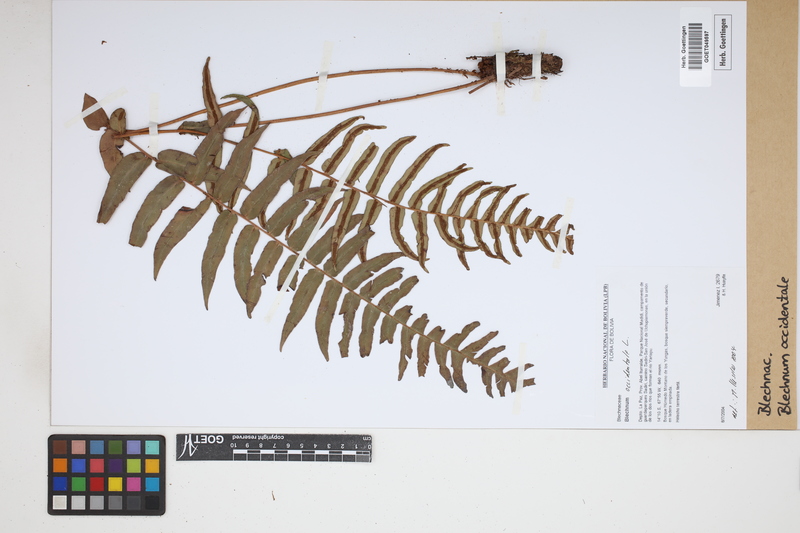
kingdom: Plantae
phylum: Tracheophyta
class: Polypodiopsida
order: Polypodiales
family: Blechnaceae
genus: Blechnum
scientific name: Blechnum occidentale
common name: Hammock fern
